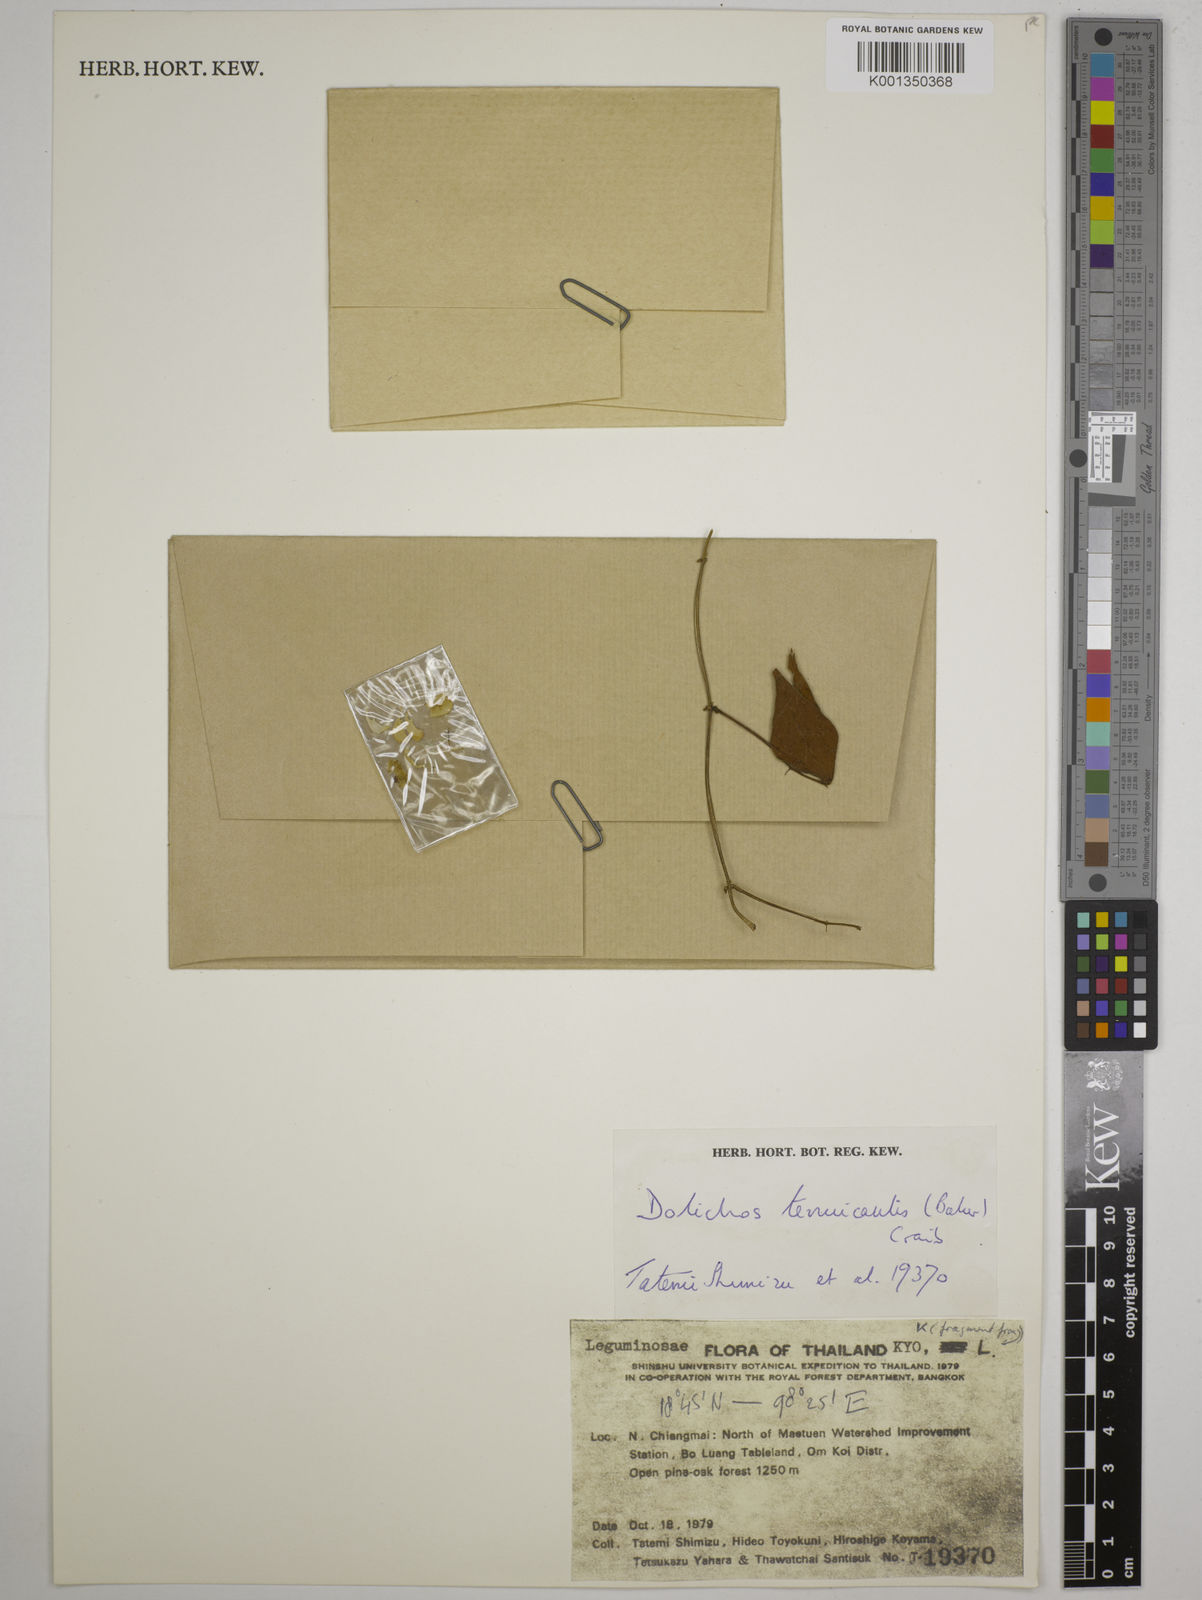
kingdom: Plantae
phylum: Tracheophyta
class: Magnoliopsida
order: Fabales
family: Fabaceae
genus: Dolichos
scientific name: Dolichos tenuicaulis
